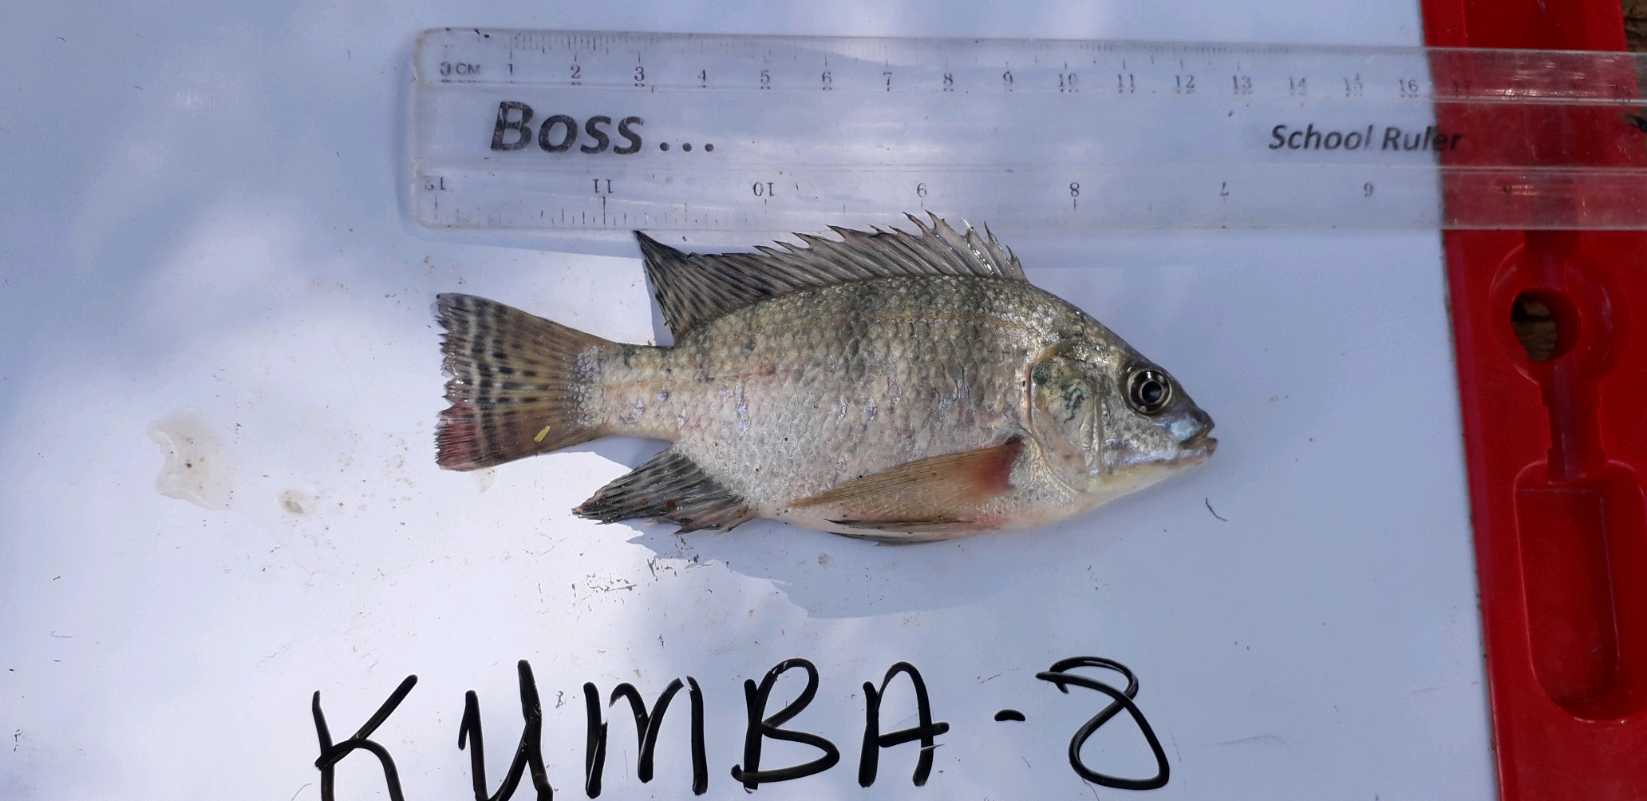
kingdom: Animalia
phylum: Chordata
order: Perciformes
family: Cichlidae
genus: Oreochromis
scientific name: Oreochromis niloticus
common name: Nile tilapia
